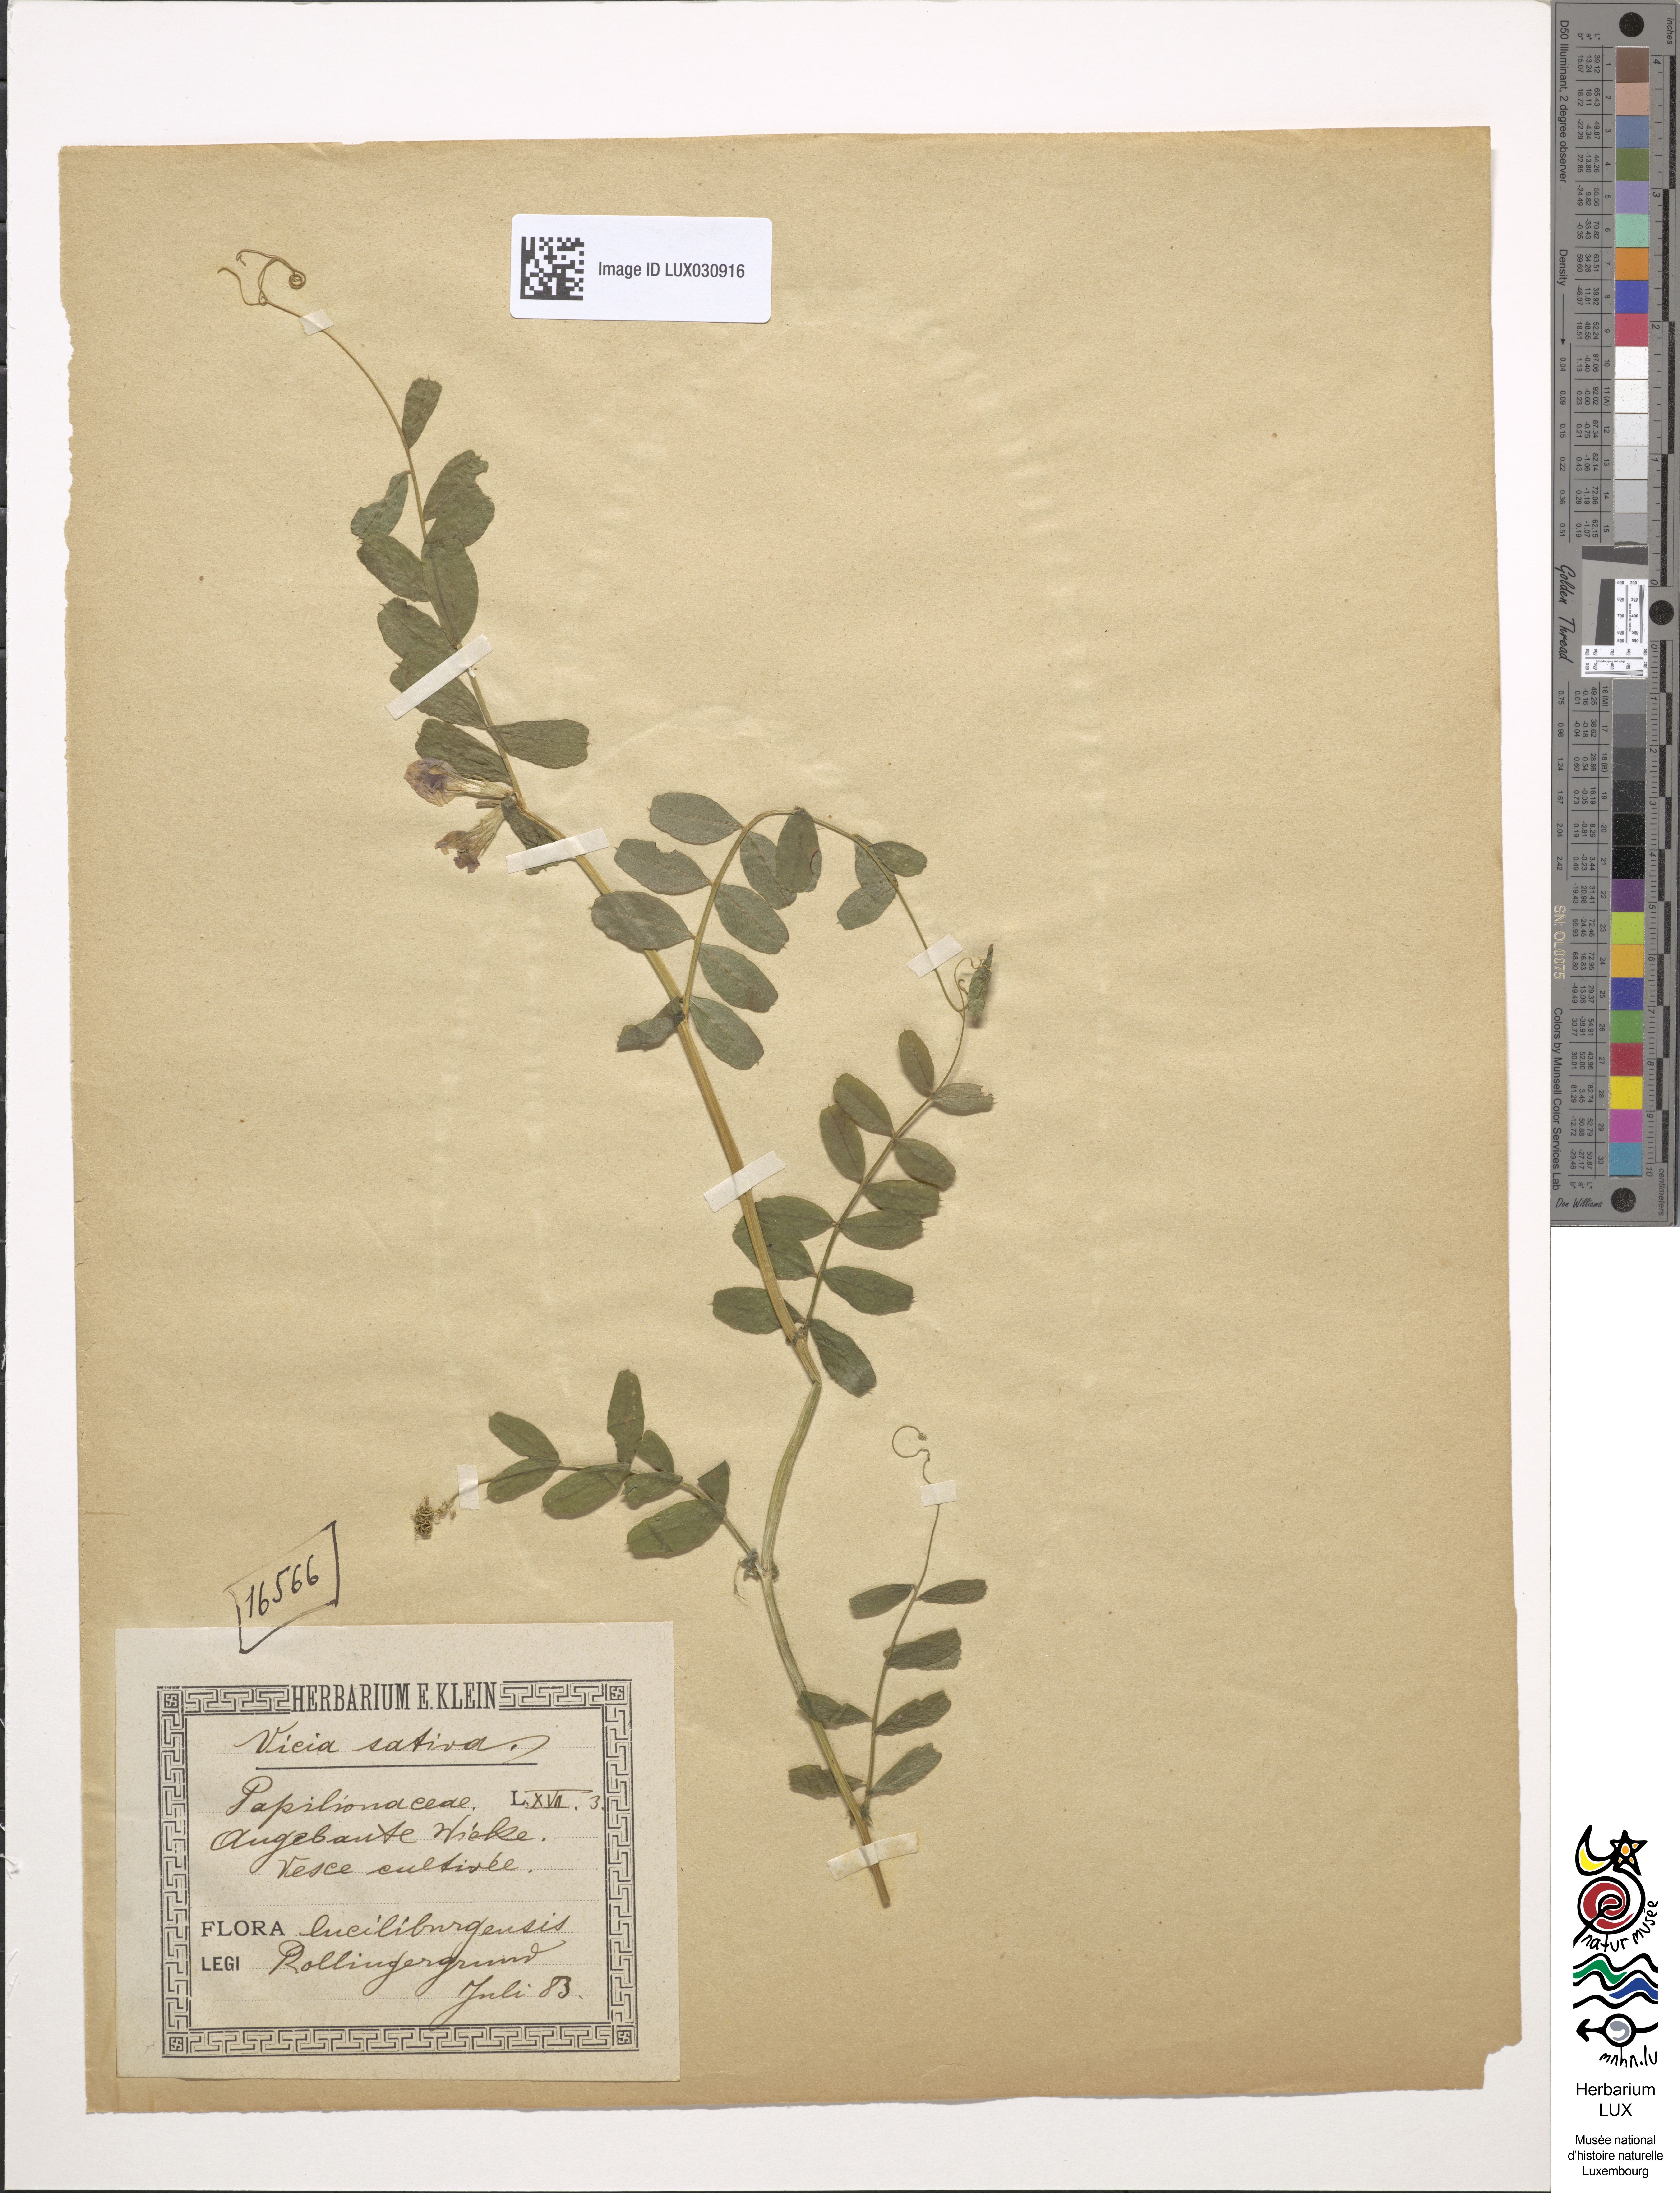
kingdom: Plantae
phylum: Tracheophyta
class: Magnoliopsida
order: Fabales
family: Fabaceae
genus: Vicia
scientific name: Vicia sativa
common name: Garden vetch
